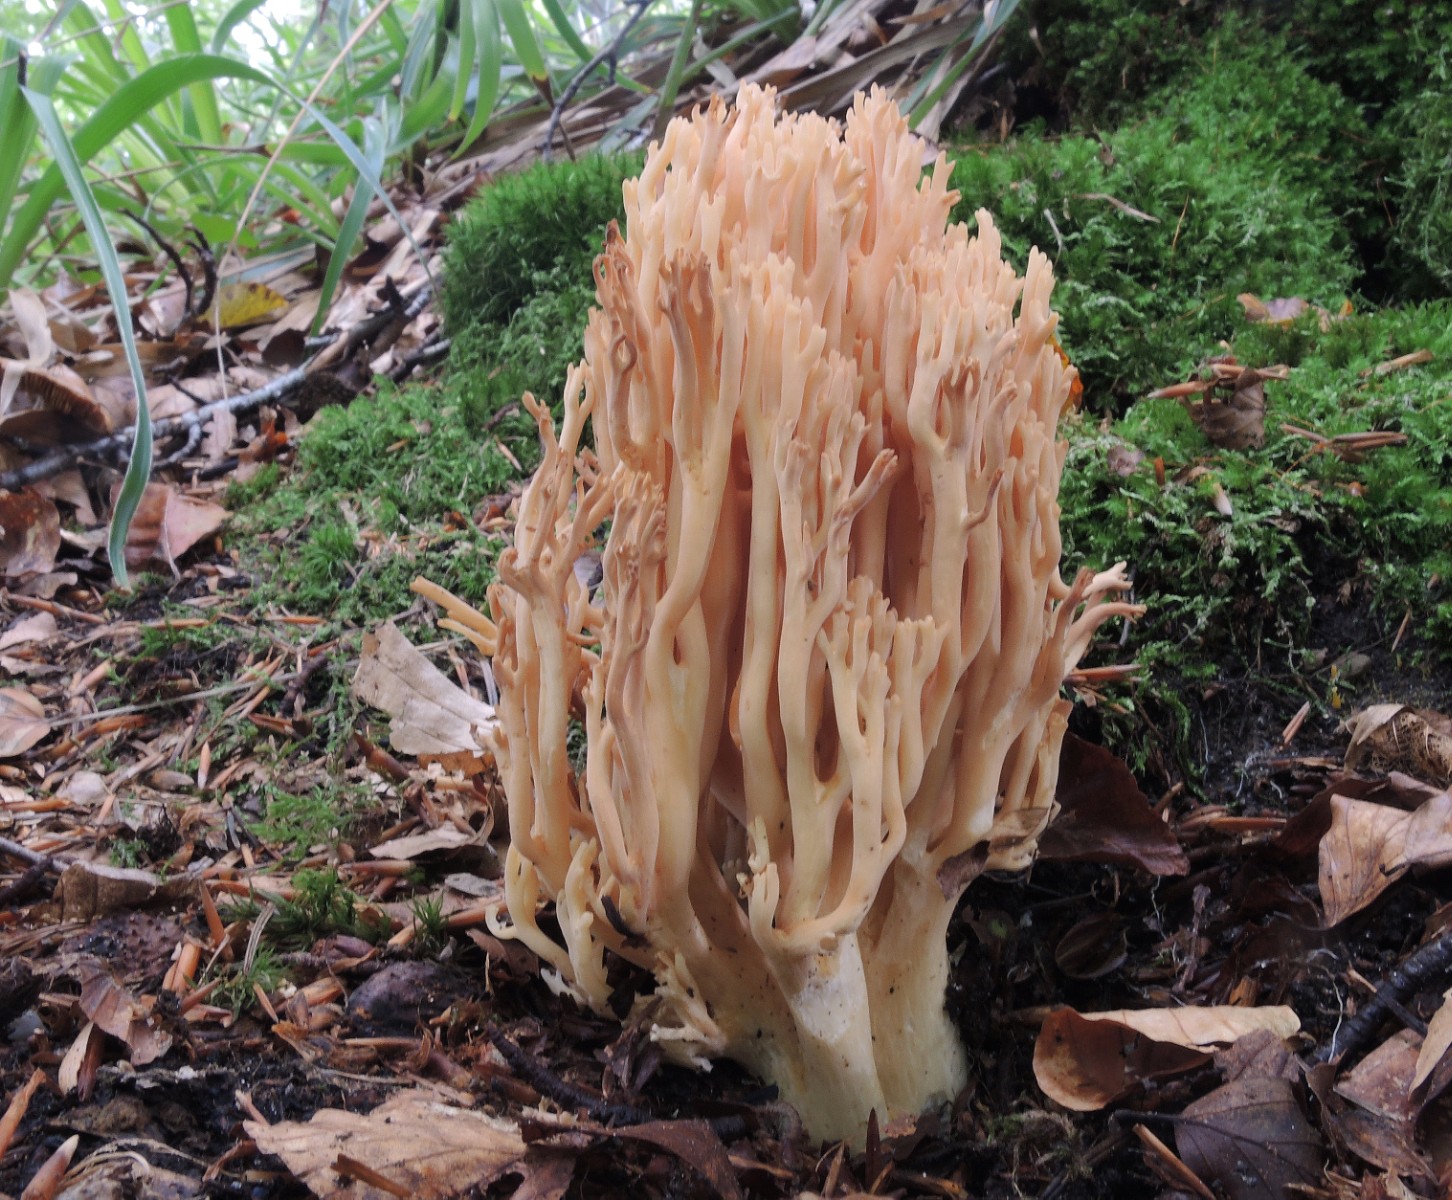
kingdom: Fungi
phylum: Basidiomycota
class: Agaricomycetes
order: Gomphales
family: Gomphaceae
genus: Ramaria
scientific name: Ramaria flavescens
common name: stor koralsvamp
